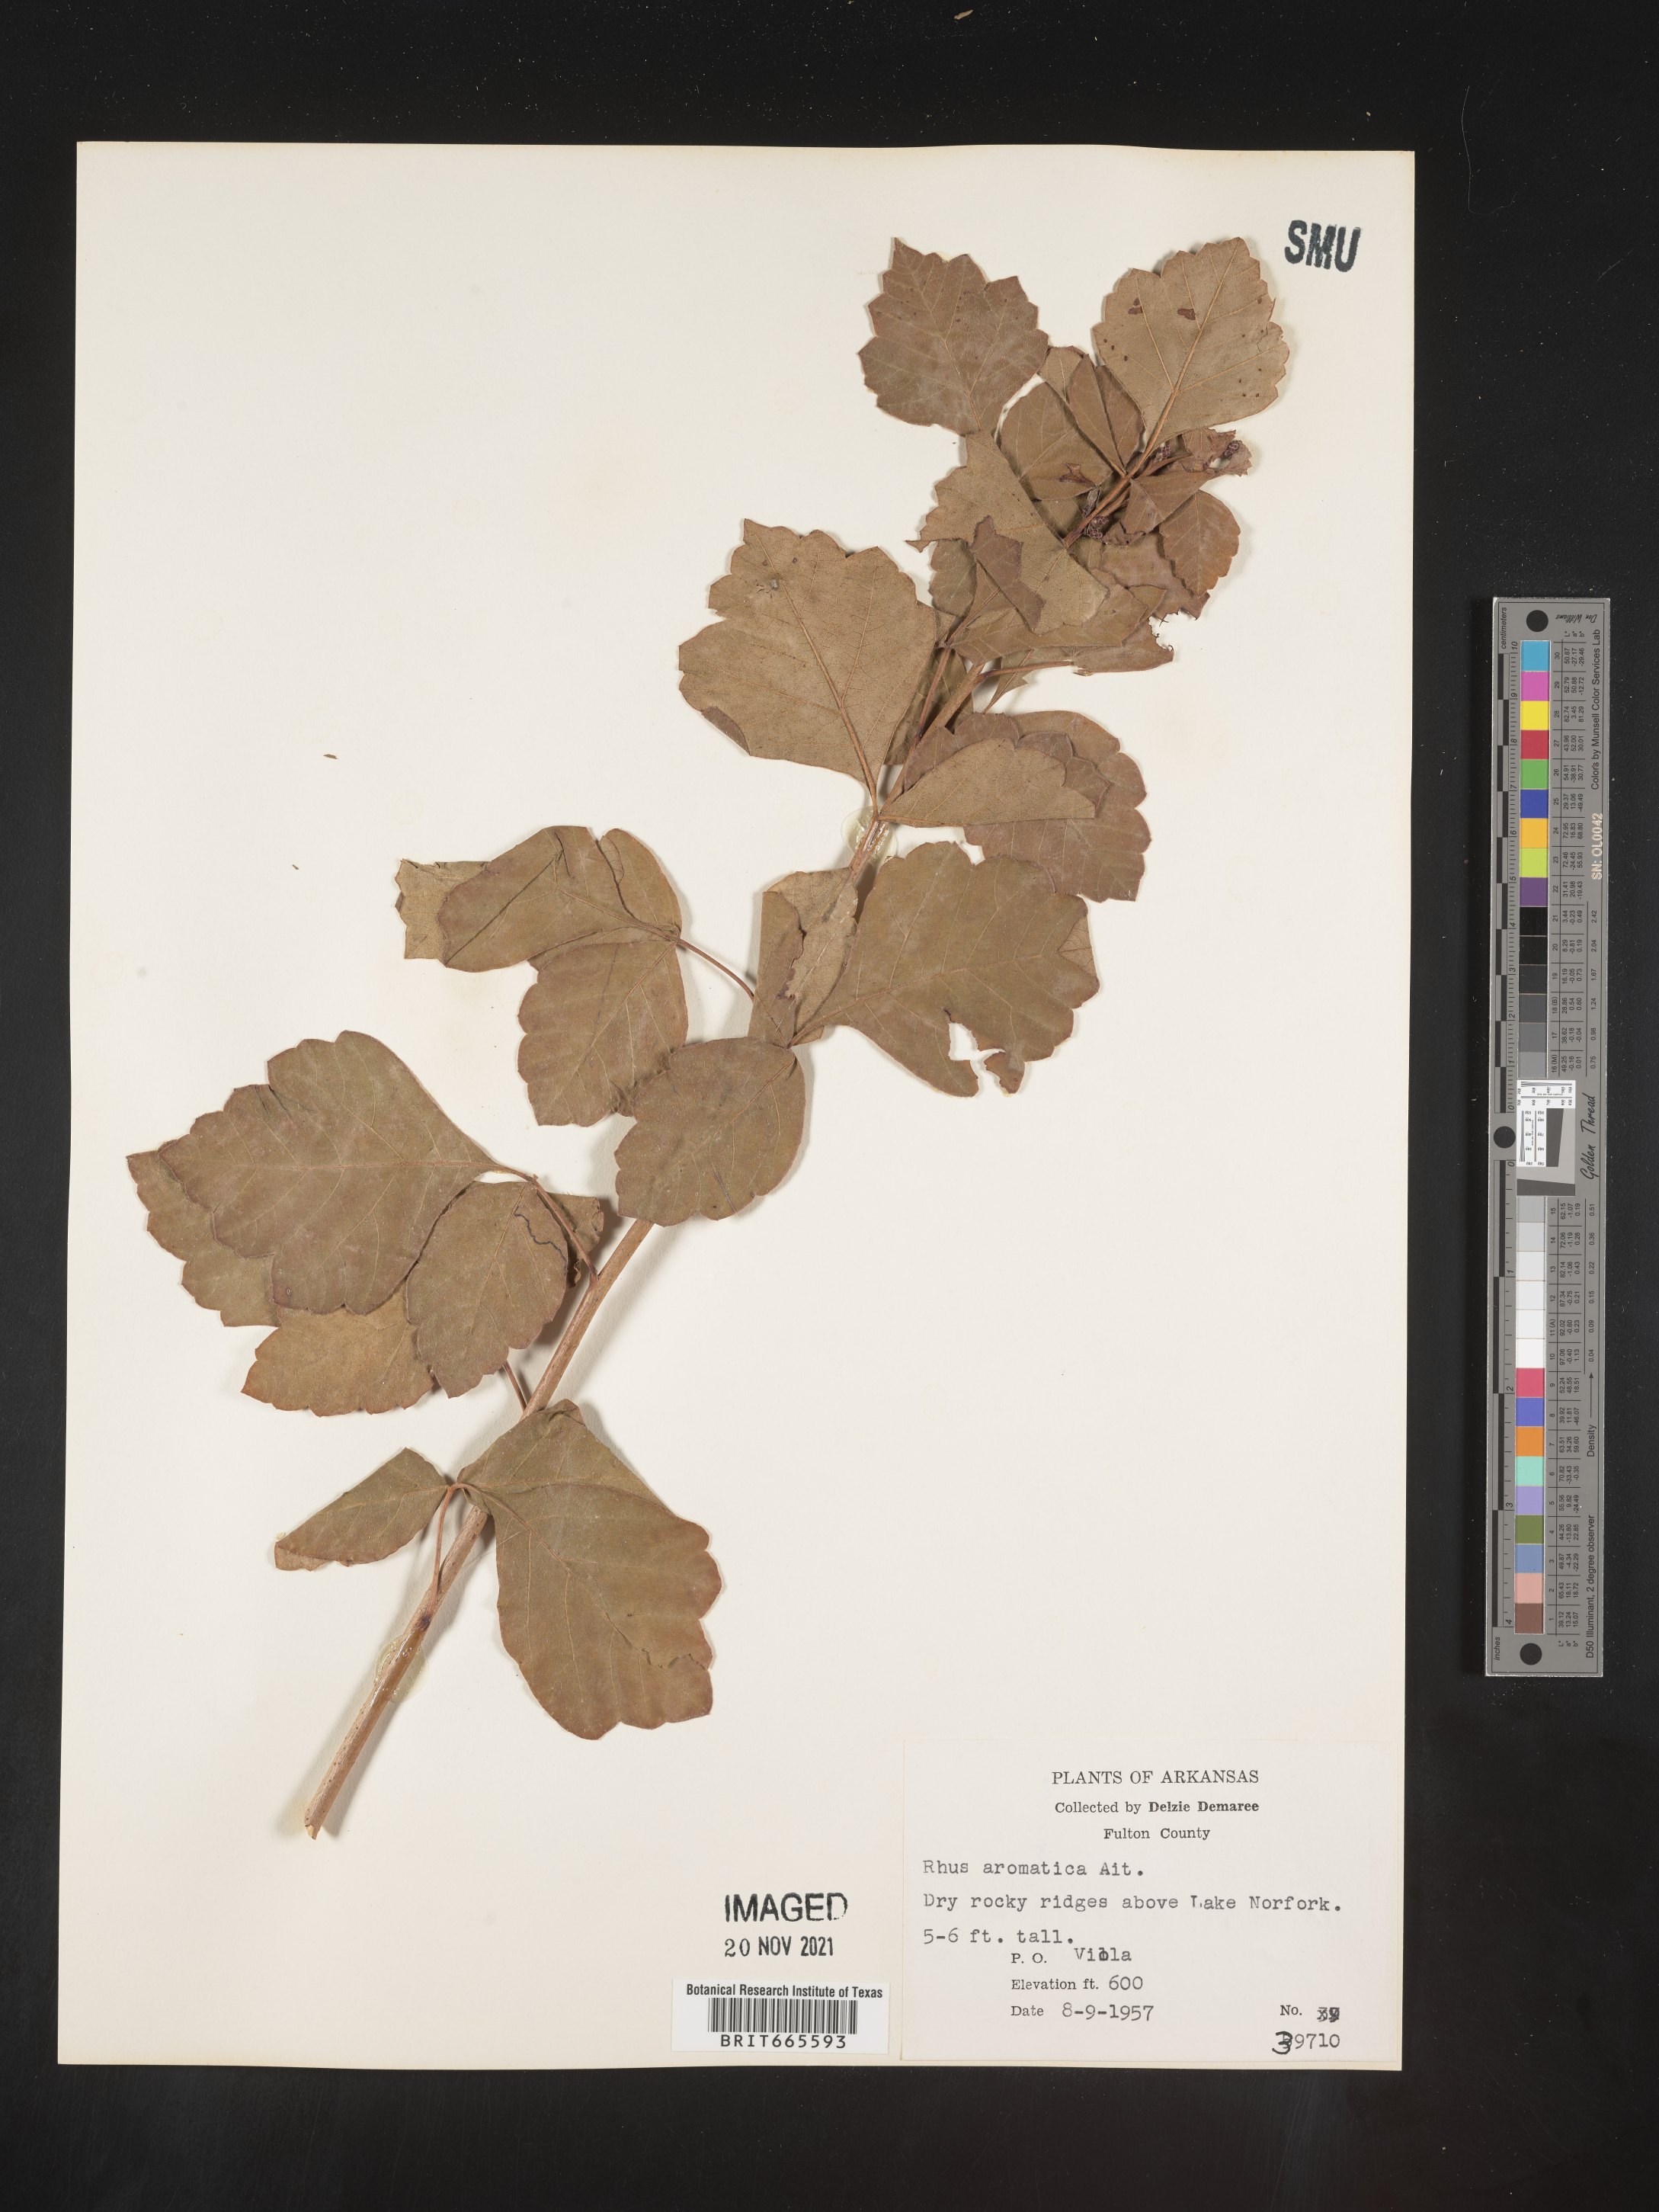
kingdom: Plantae
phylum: Tracheophyta
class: Magnoliopsida
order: Sapindales
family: Anacardiaceae
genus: Rhus
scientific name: Rhus aromatica
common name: Aromatic sumac
